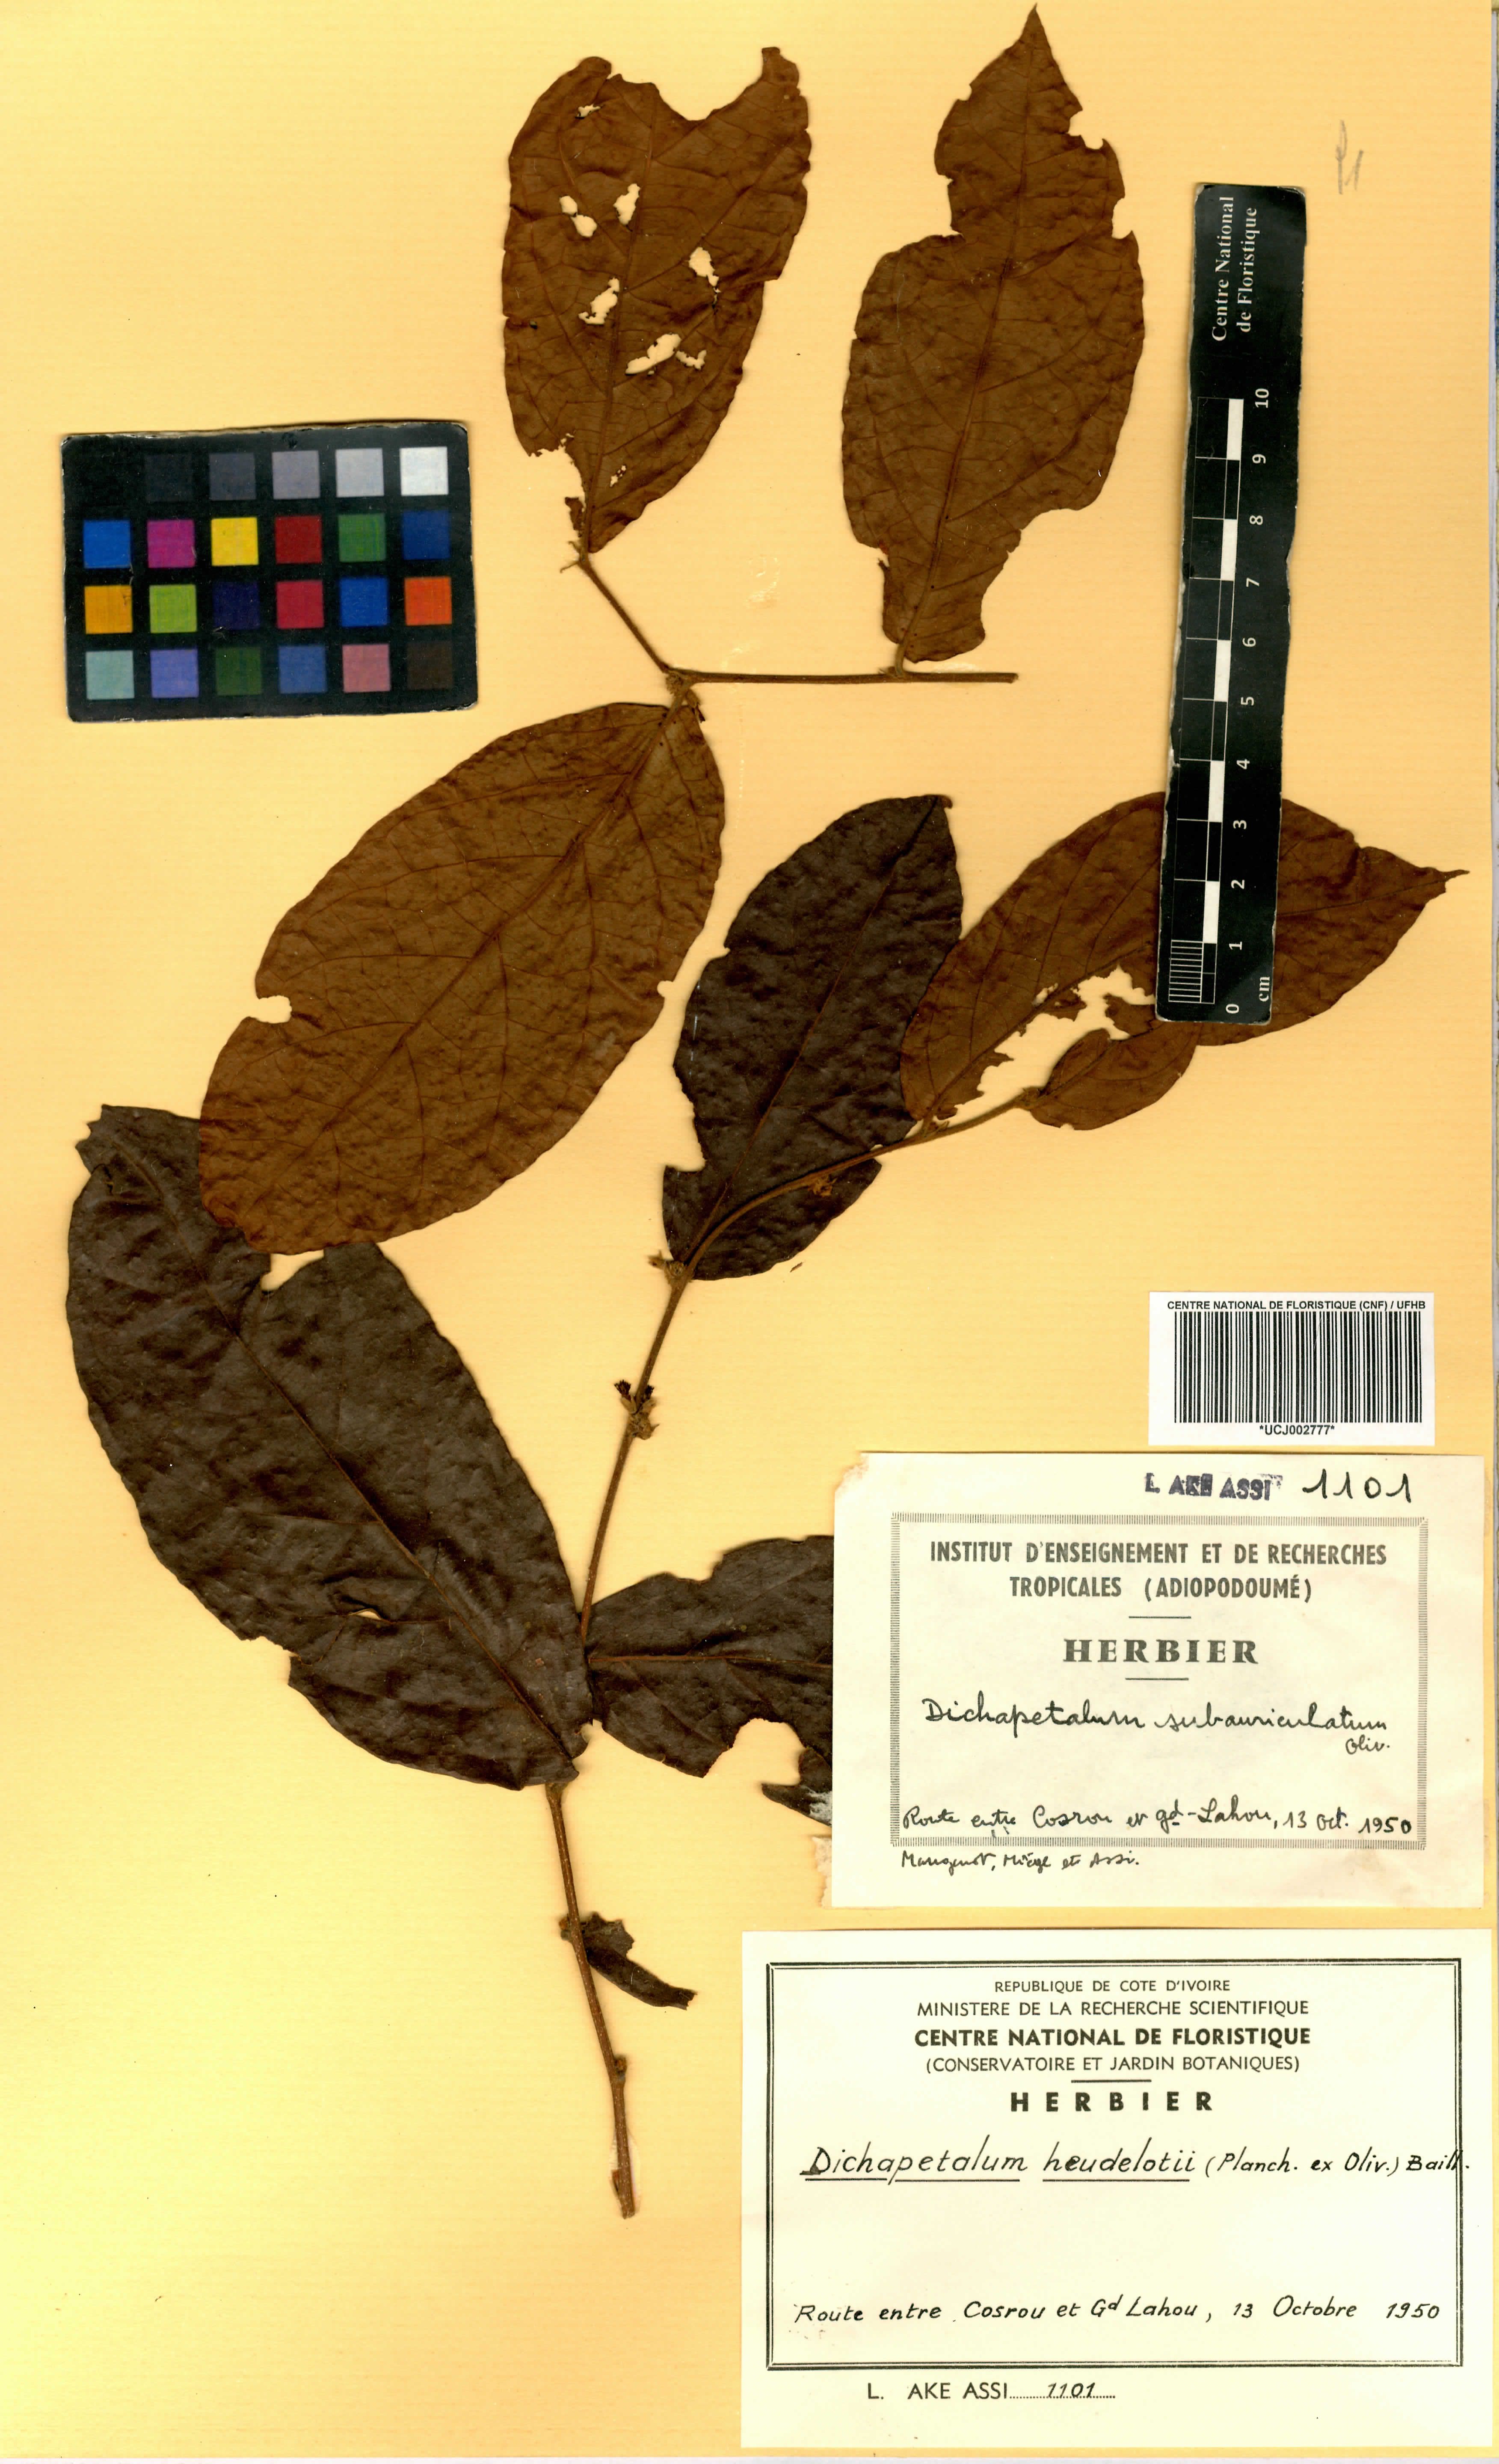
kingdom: Plantae
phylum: Tracheophyta
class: Magnoliopsida
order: Malpighiales
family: Dichapetalaceae
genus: Dichapetalum
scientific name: Dichapetalum heudelotii
